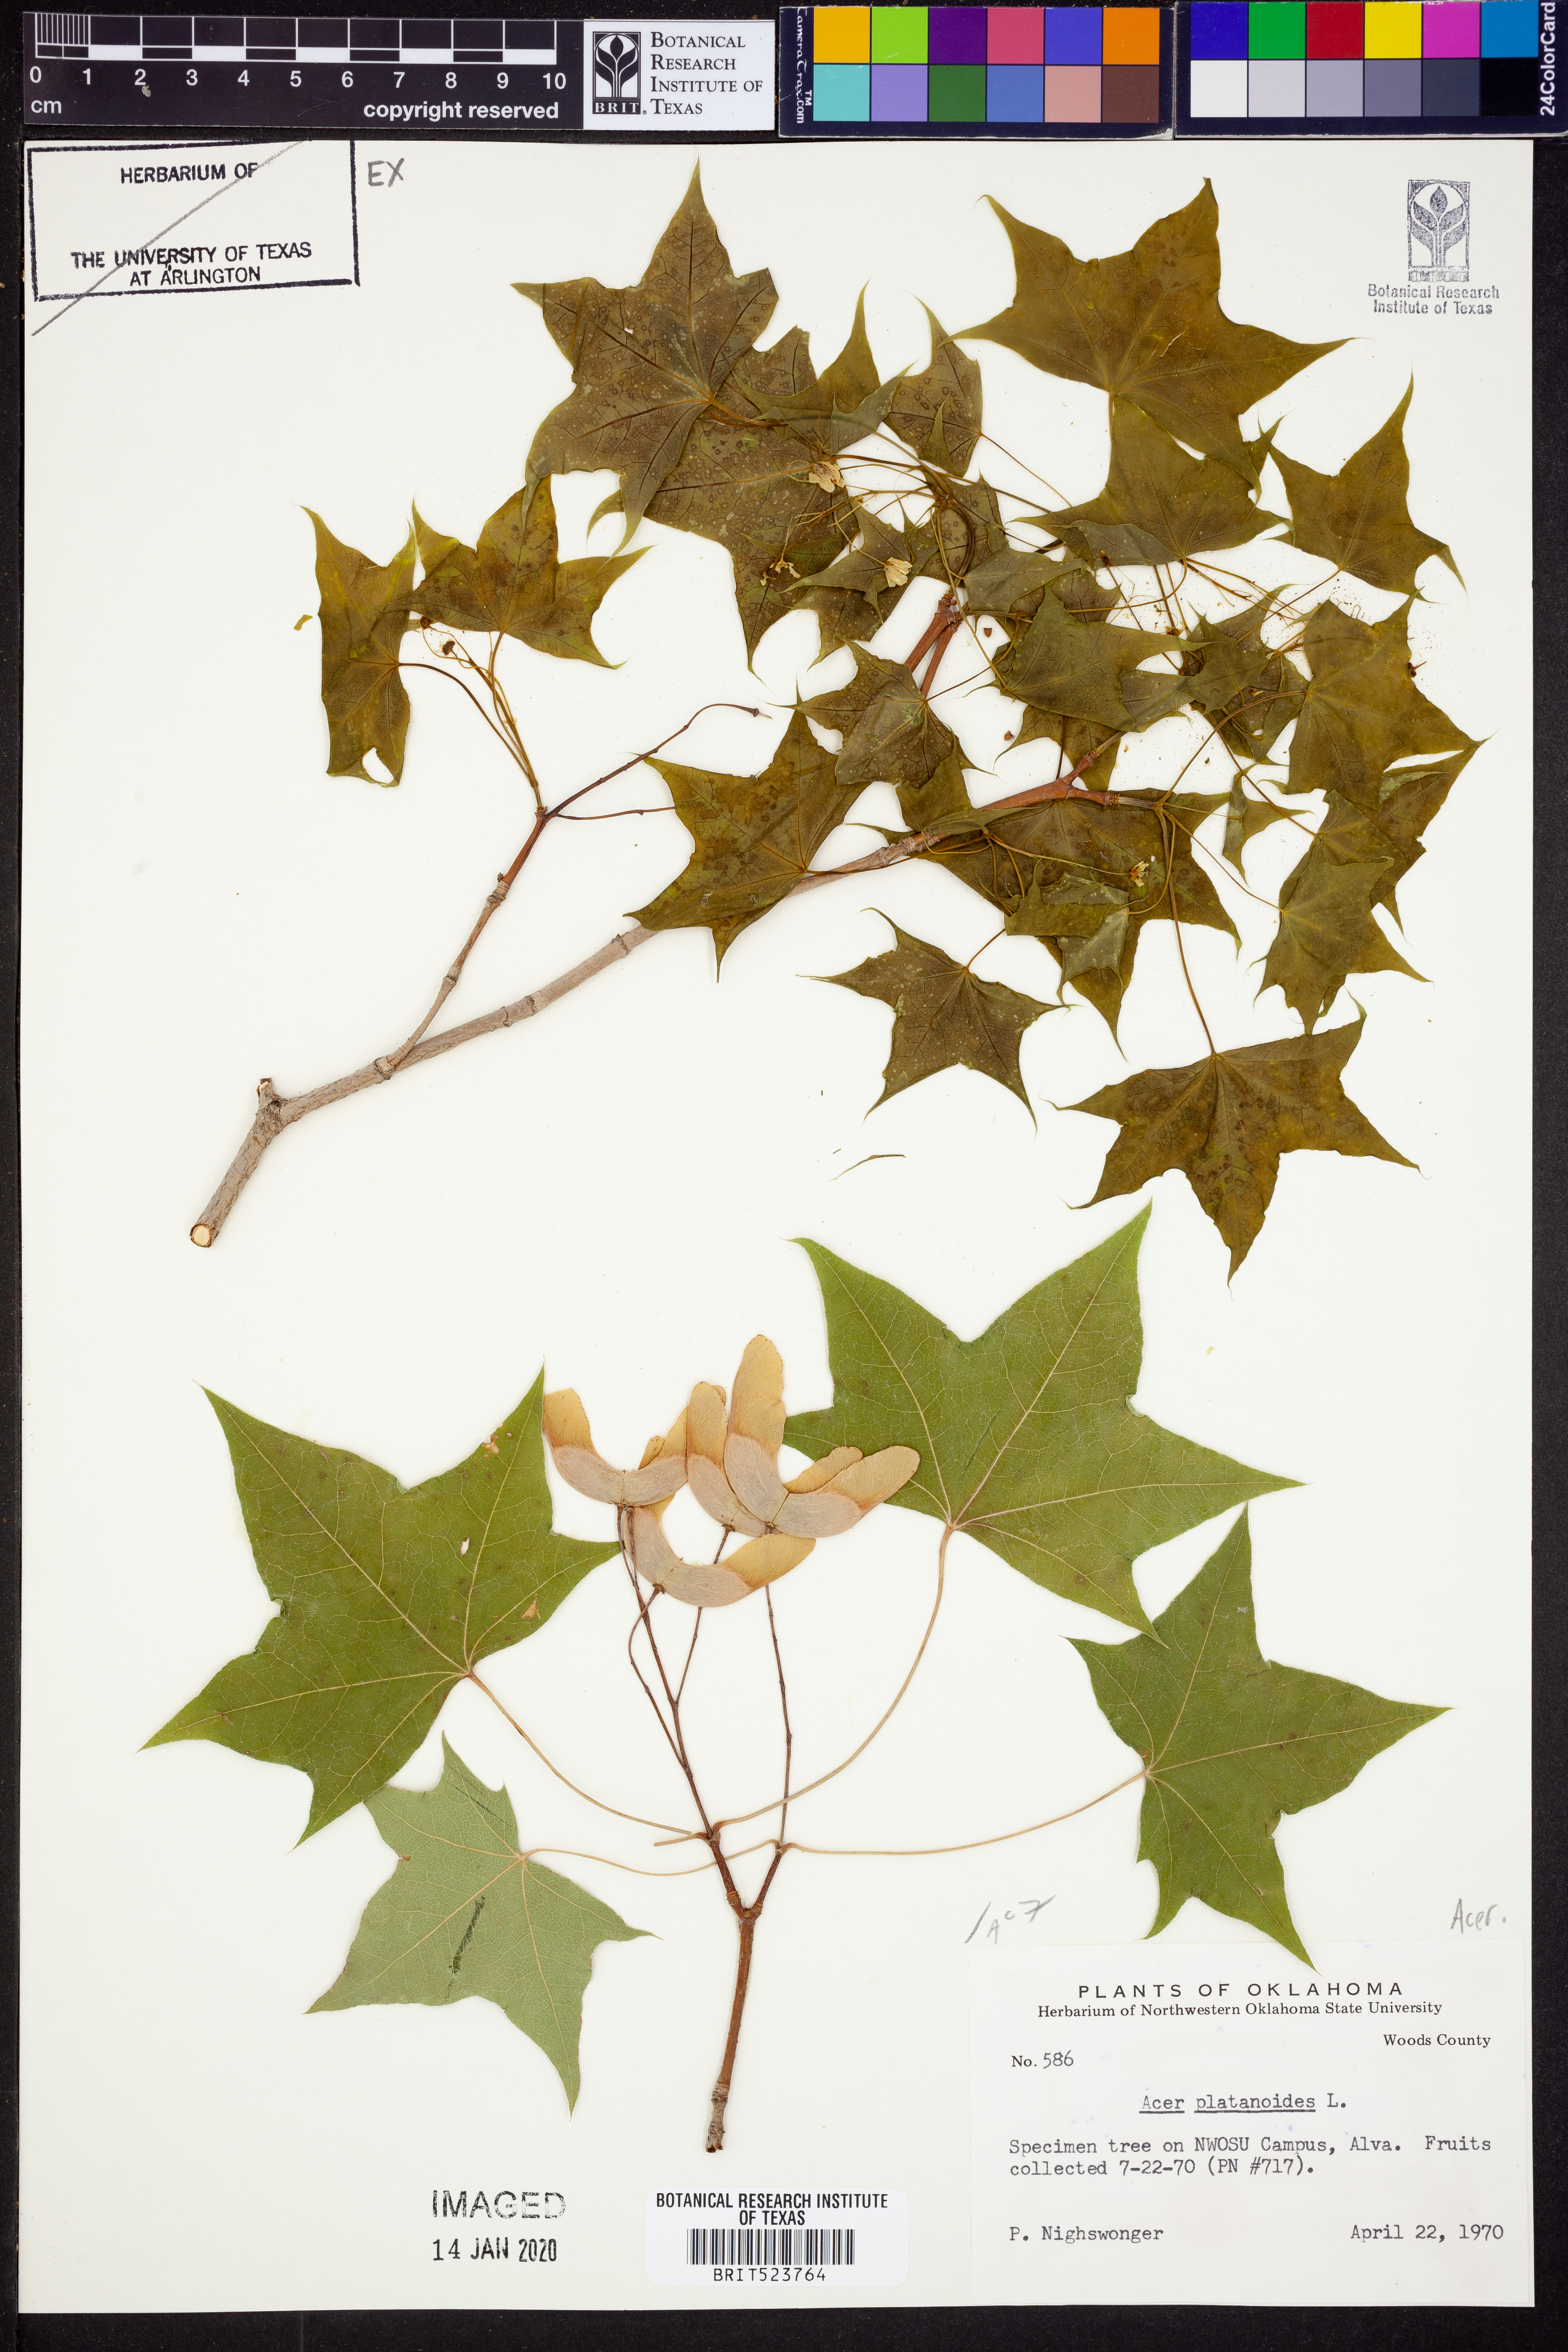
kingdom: Plantae
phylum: Tracheophyta
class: Magnoliopsida
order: Sapindales
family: Sapindaceae
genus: Acer
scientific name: Acer platanoides
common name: Norway maple
